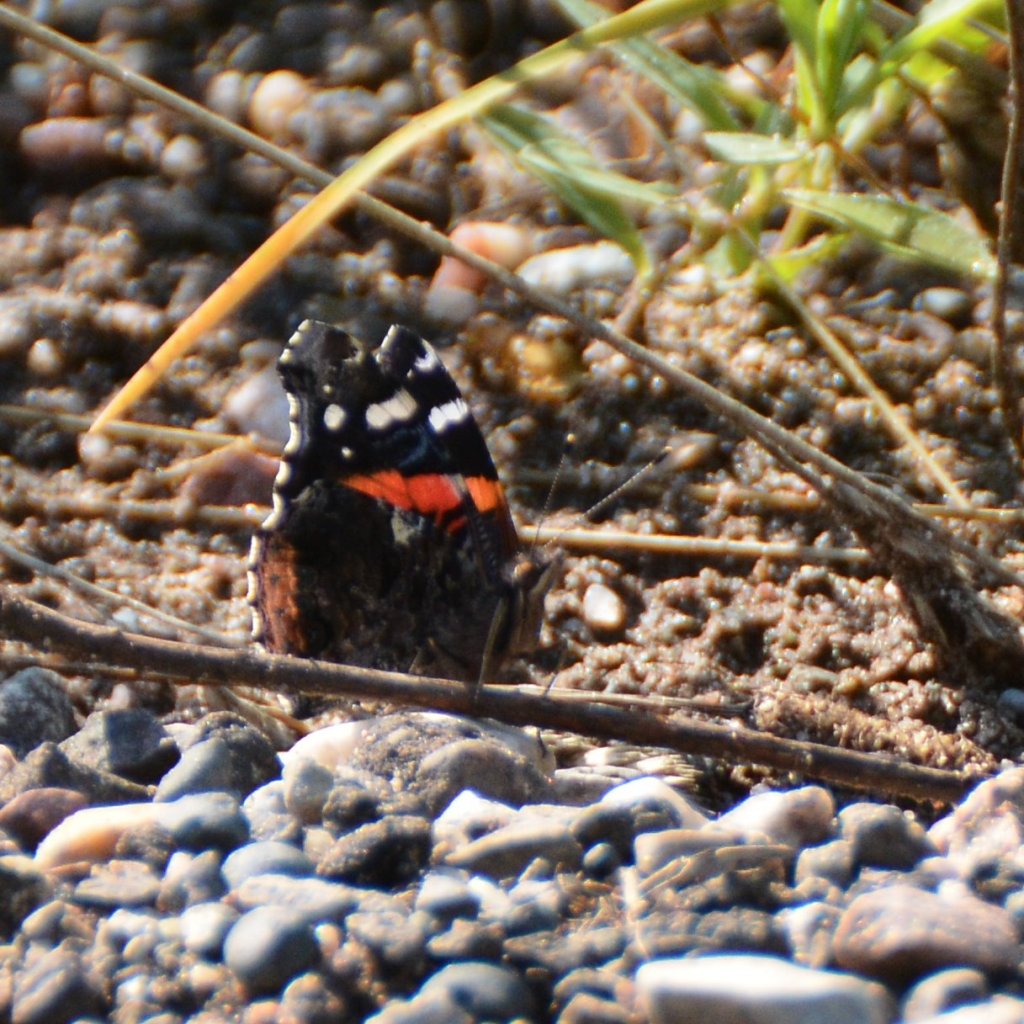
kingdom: Animalia
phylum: Arthropoda
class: Insecta
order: Lepidoptera
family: Nymphalidae
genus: Vanessa
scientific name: Vanessa atalanta
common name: Red Admiral
